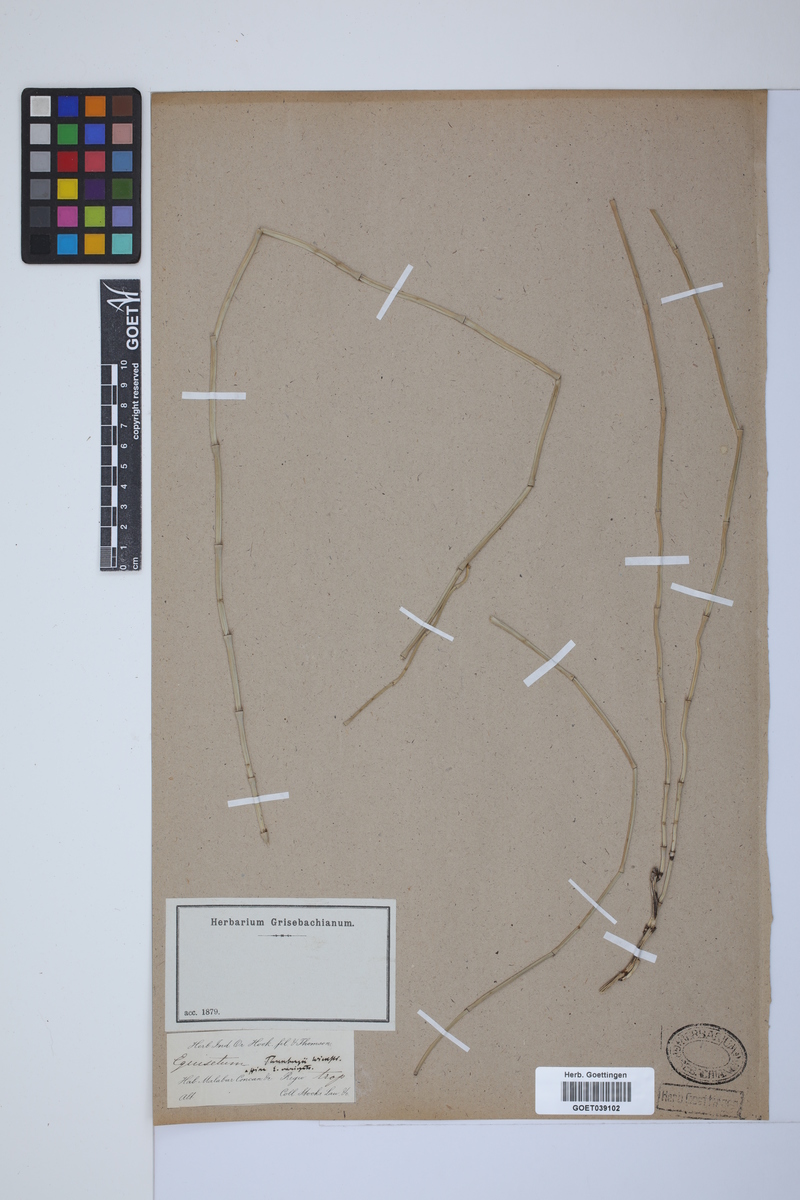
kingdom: Plantae
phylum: Tracheophyta
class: Polypodiopsida
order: Equisetales
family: Equisetaceae
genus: Equisetum
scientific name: Equisetum ramosissimum
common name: Branched horsetail
